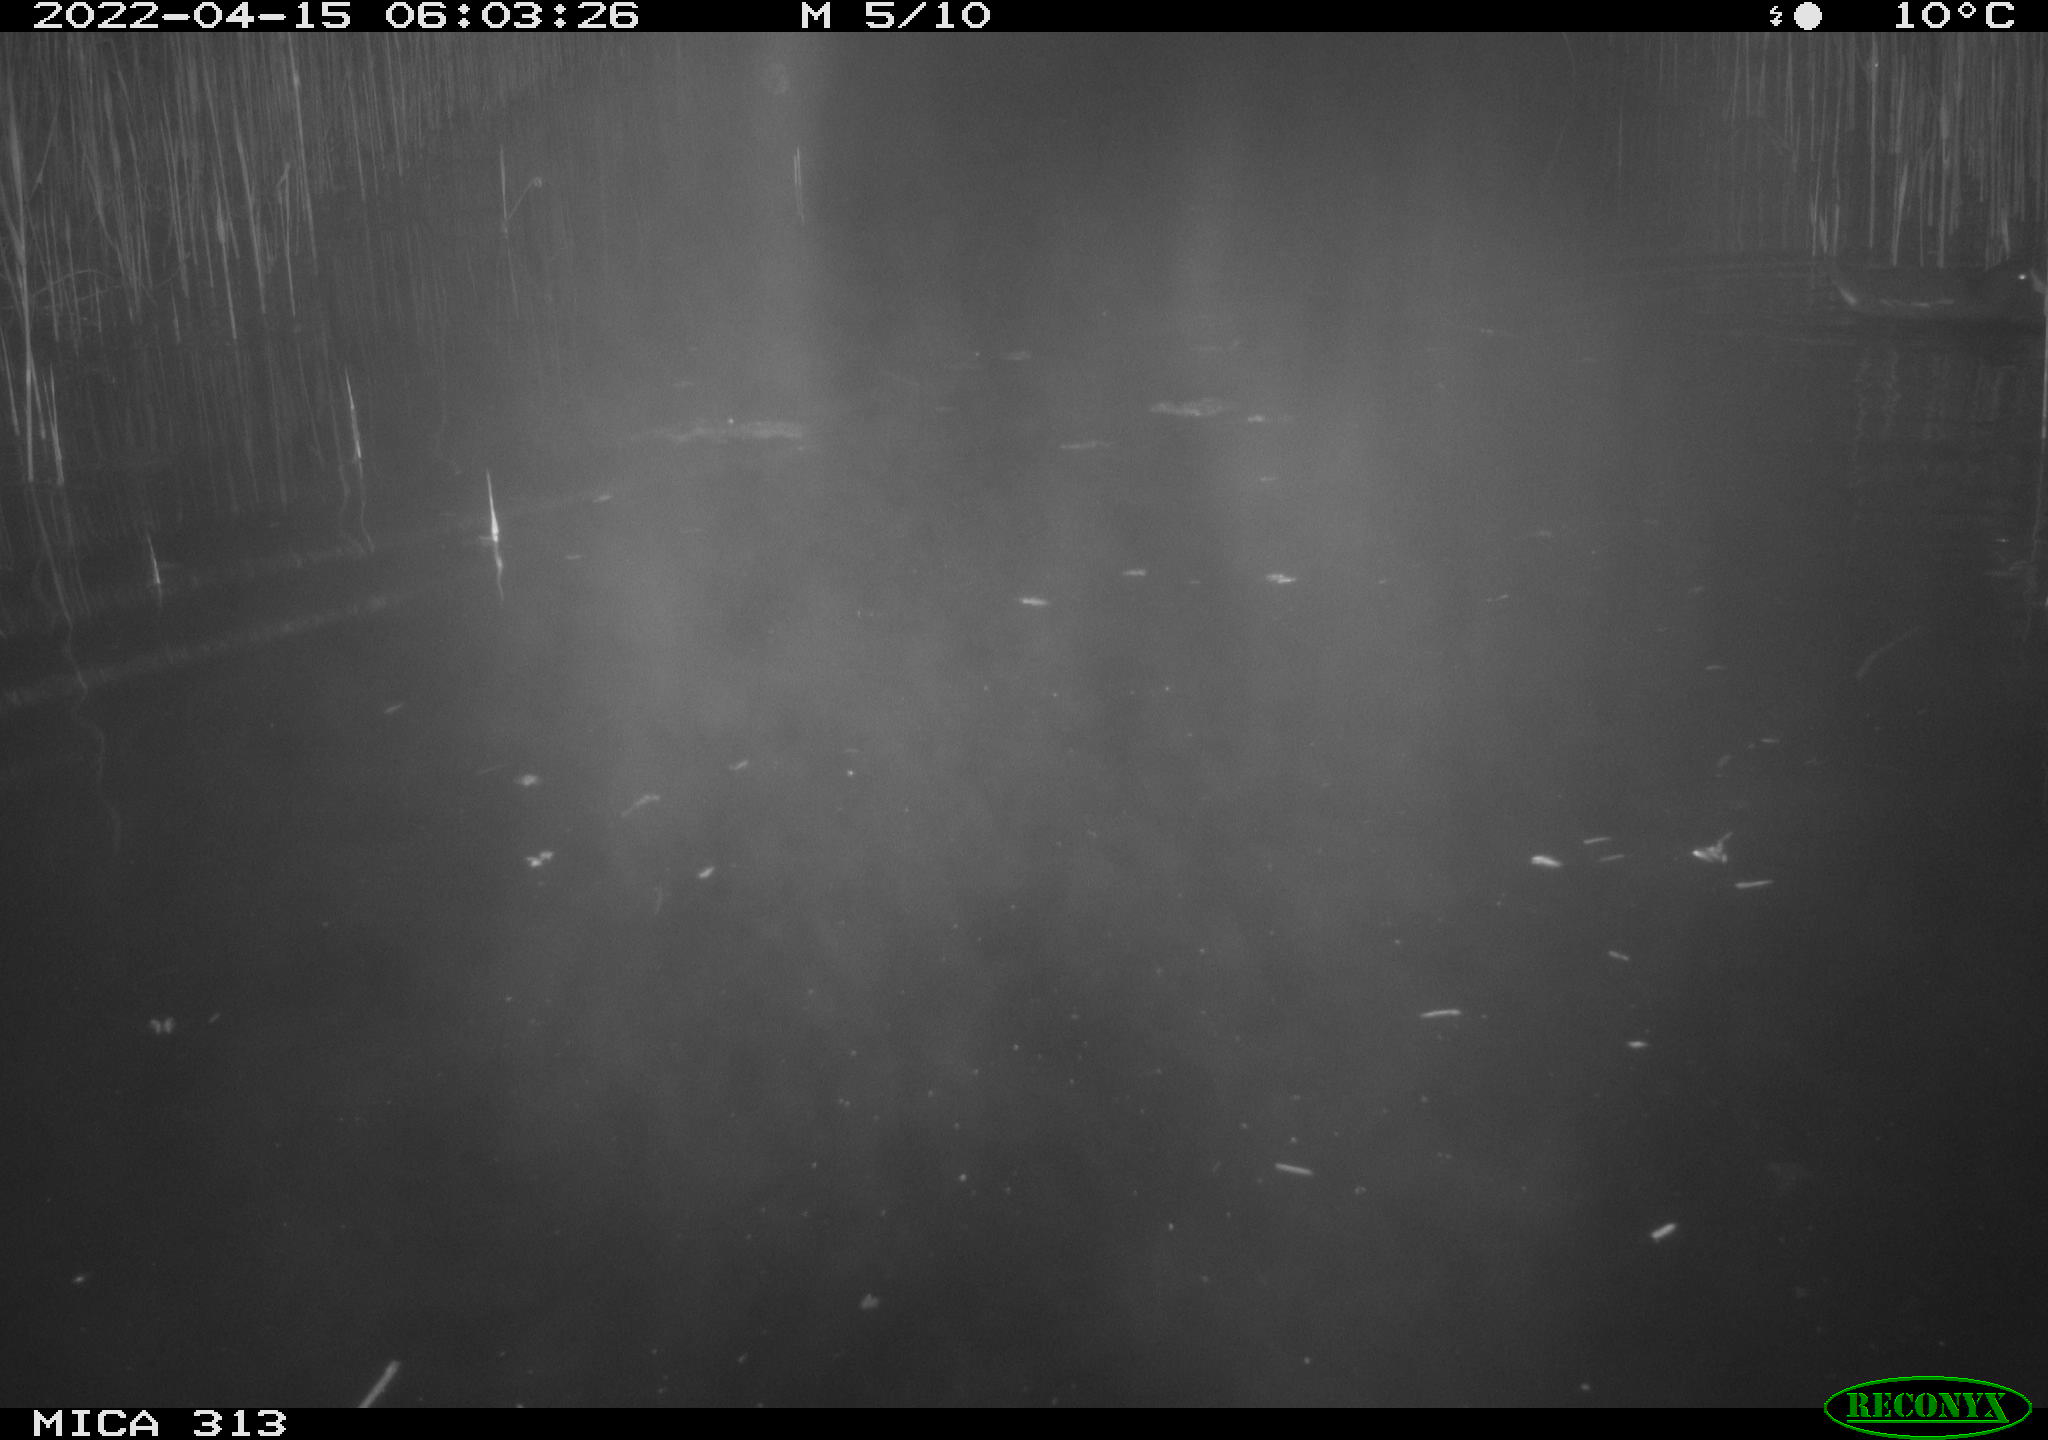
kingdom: Animalia
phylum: Chordata
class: Aves
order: Gruiformes
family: Rallidae
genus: Gallinula
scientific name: Gallinula chloropus
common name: Common moorhen
